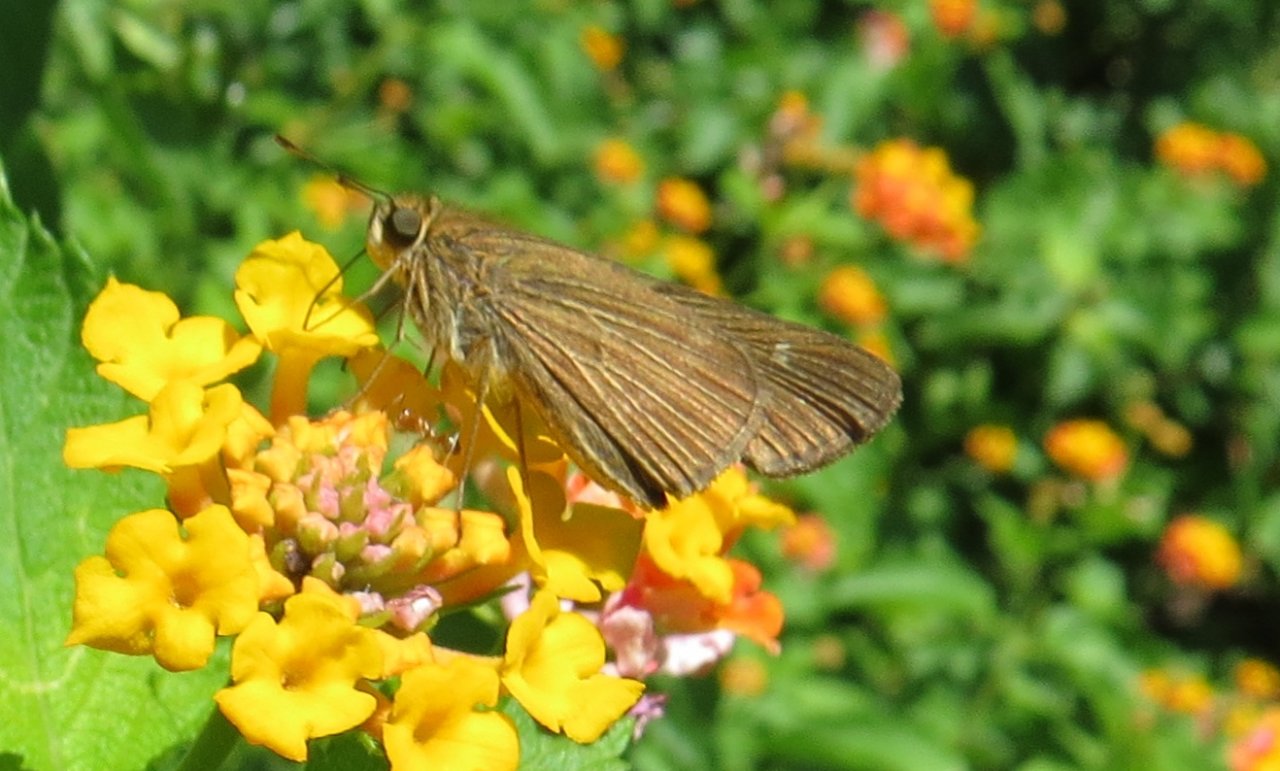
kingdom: Animalia
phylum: Arthropoda
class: Insecta
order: Lepidoptera
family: Hesperiidae
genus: Panoquina
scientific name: Panoquina ocola
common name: Ocola Skipper
